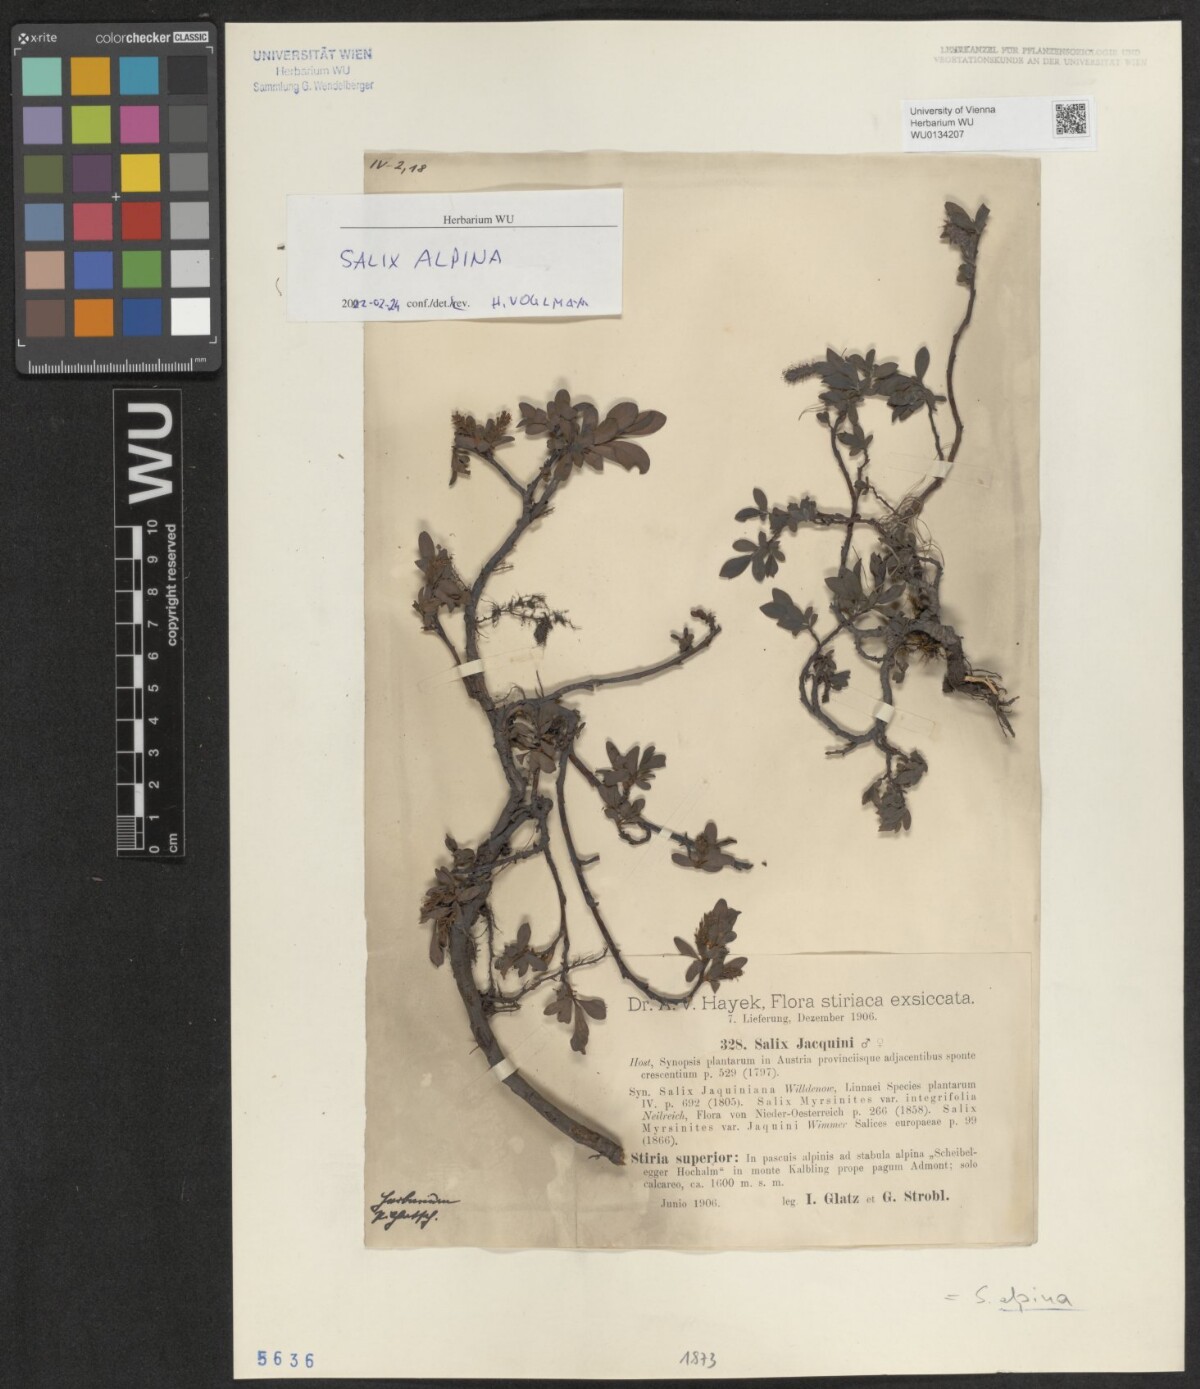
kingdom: Plantae
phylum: Tracheophyta
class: Magnoliopsida
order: Malpighiales
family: Salicaceae
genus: Salix
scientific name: Salix alpina
